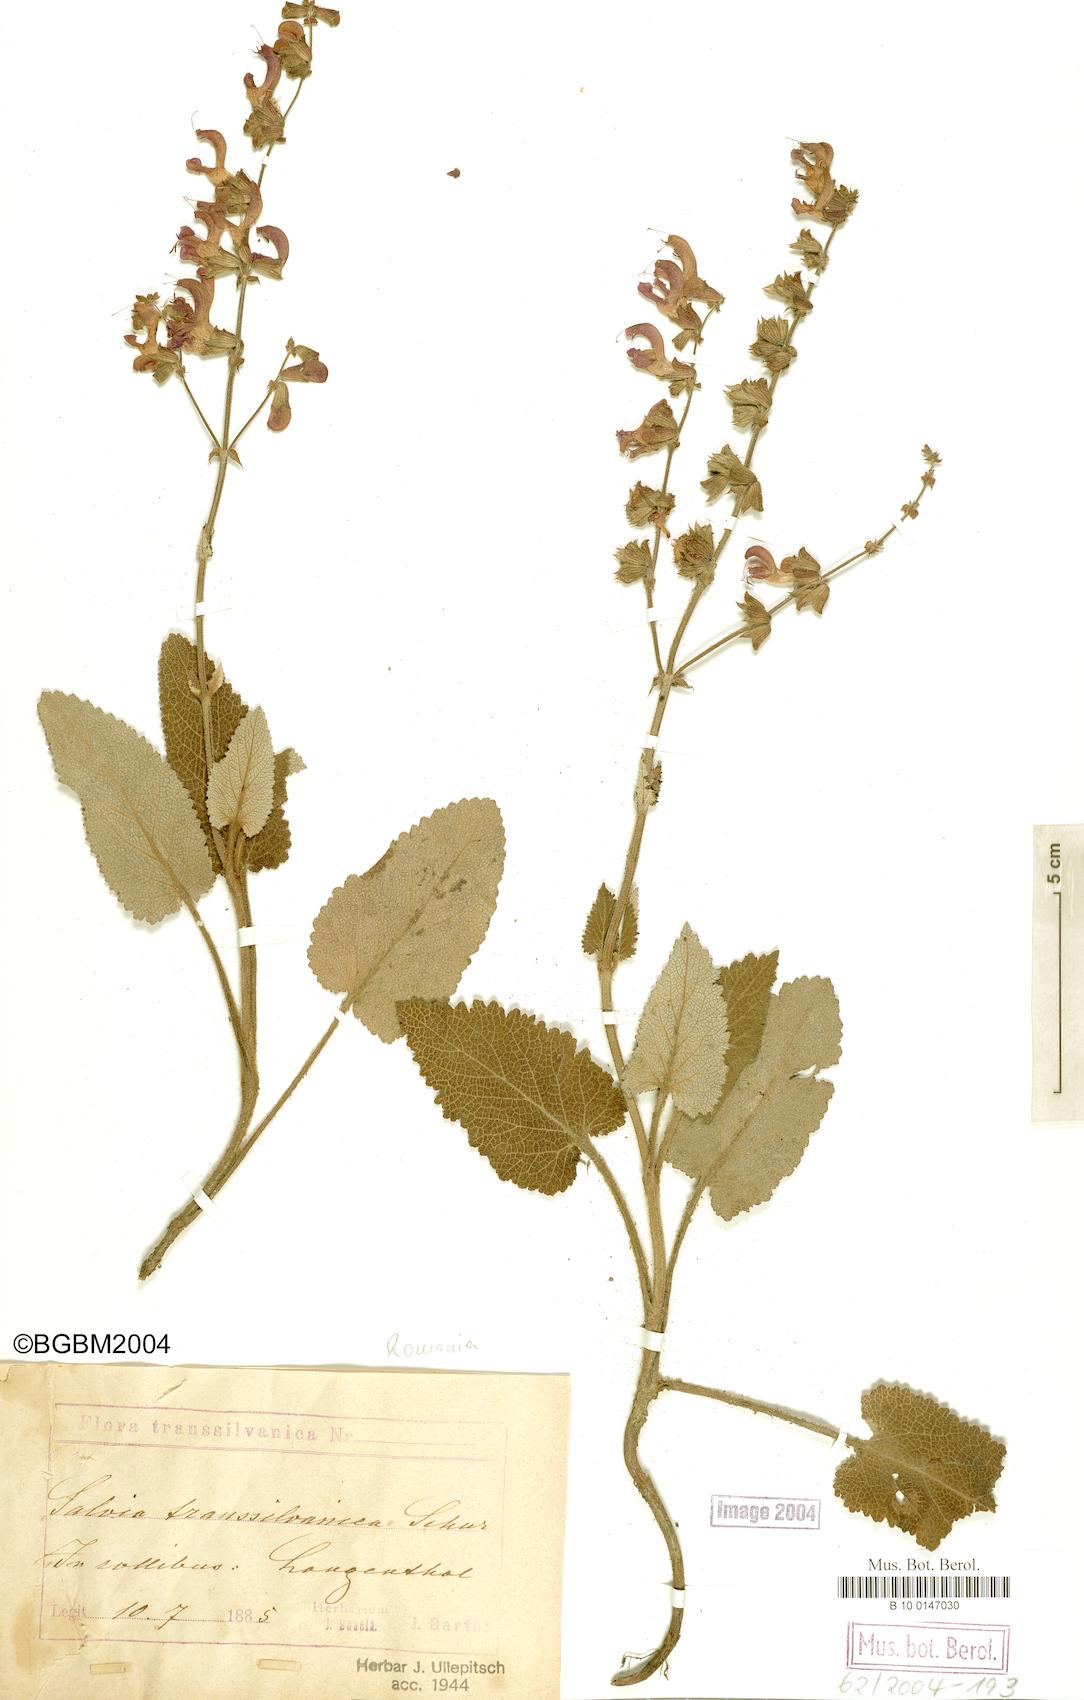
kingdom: Plantae
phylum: Tracheophyta
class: Magnoliopsida
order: Lamiales
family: Lamiaceae
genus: Salvia
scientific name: Salvia transsylvanica
